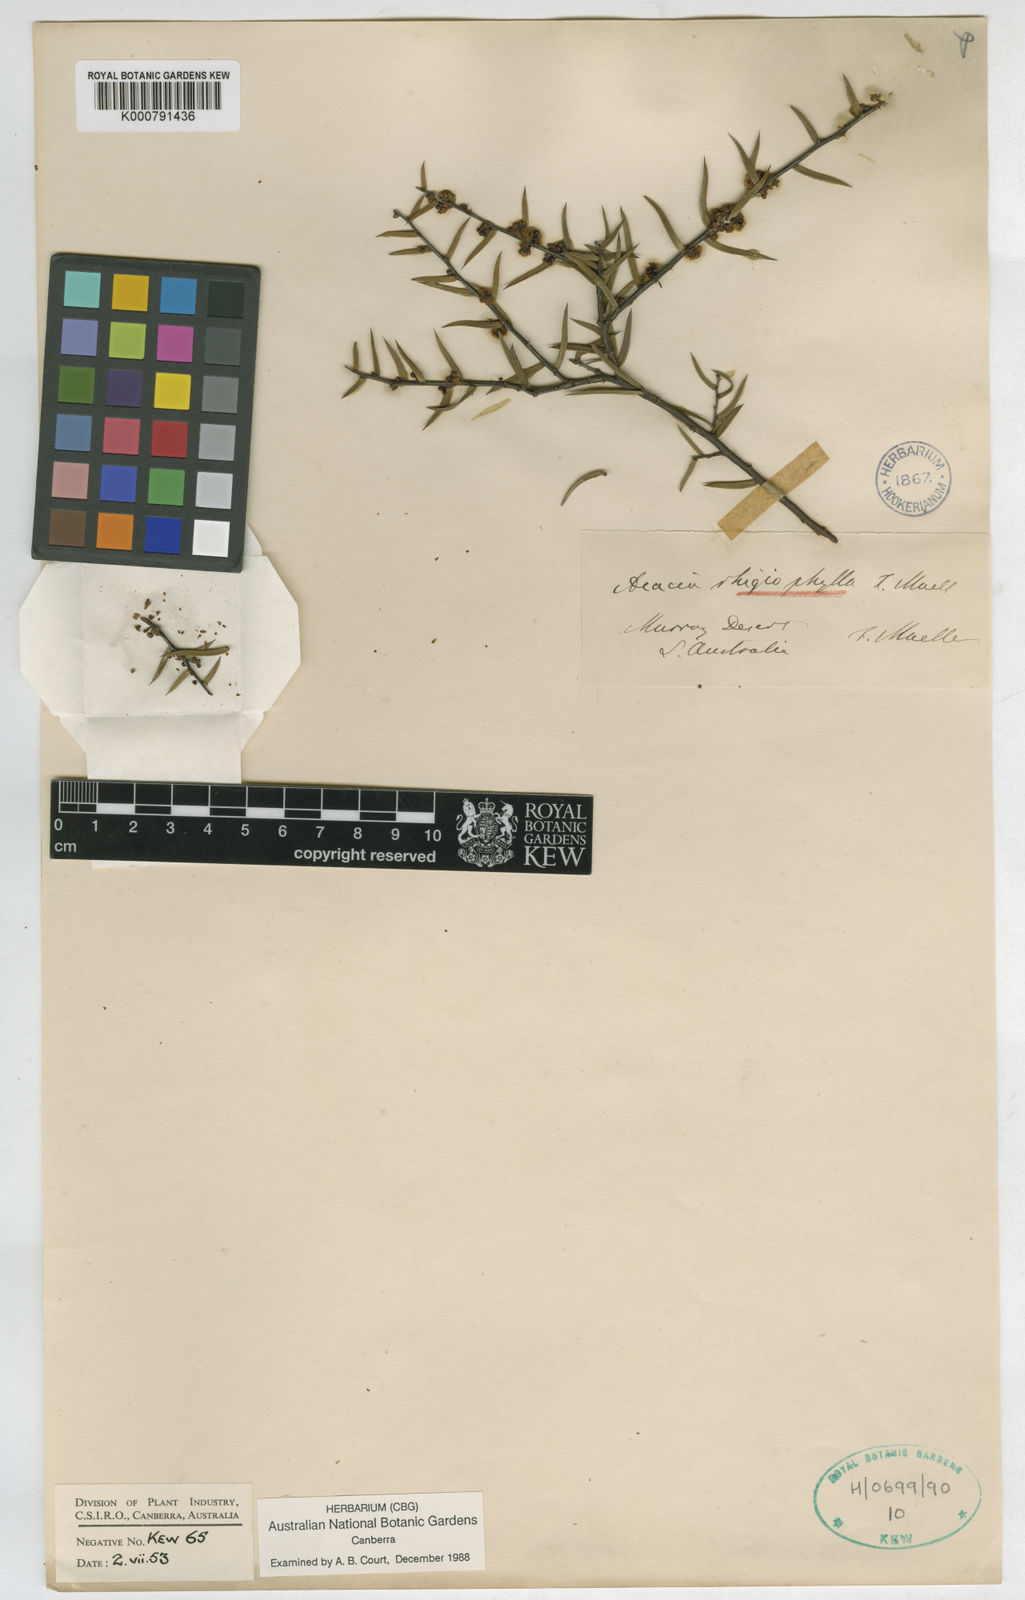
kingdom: Plantae
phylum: Tracheophyta
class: Magnoliopsida
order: Fabales
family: Fabaceae
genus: Acacia
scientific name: Acacia rhigiophylla
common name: Dagger-leaf wattle
